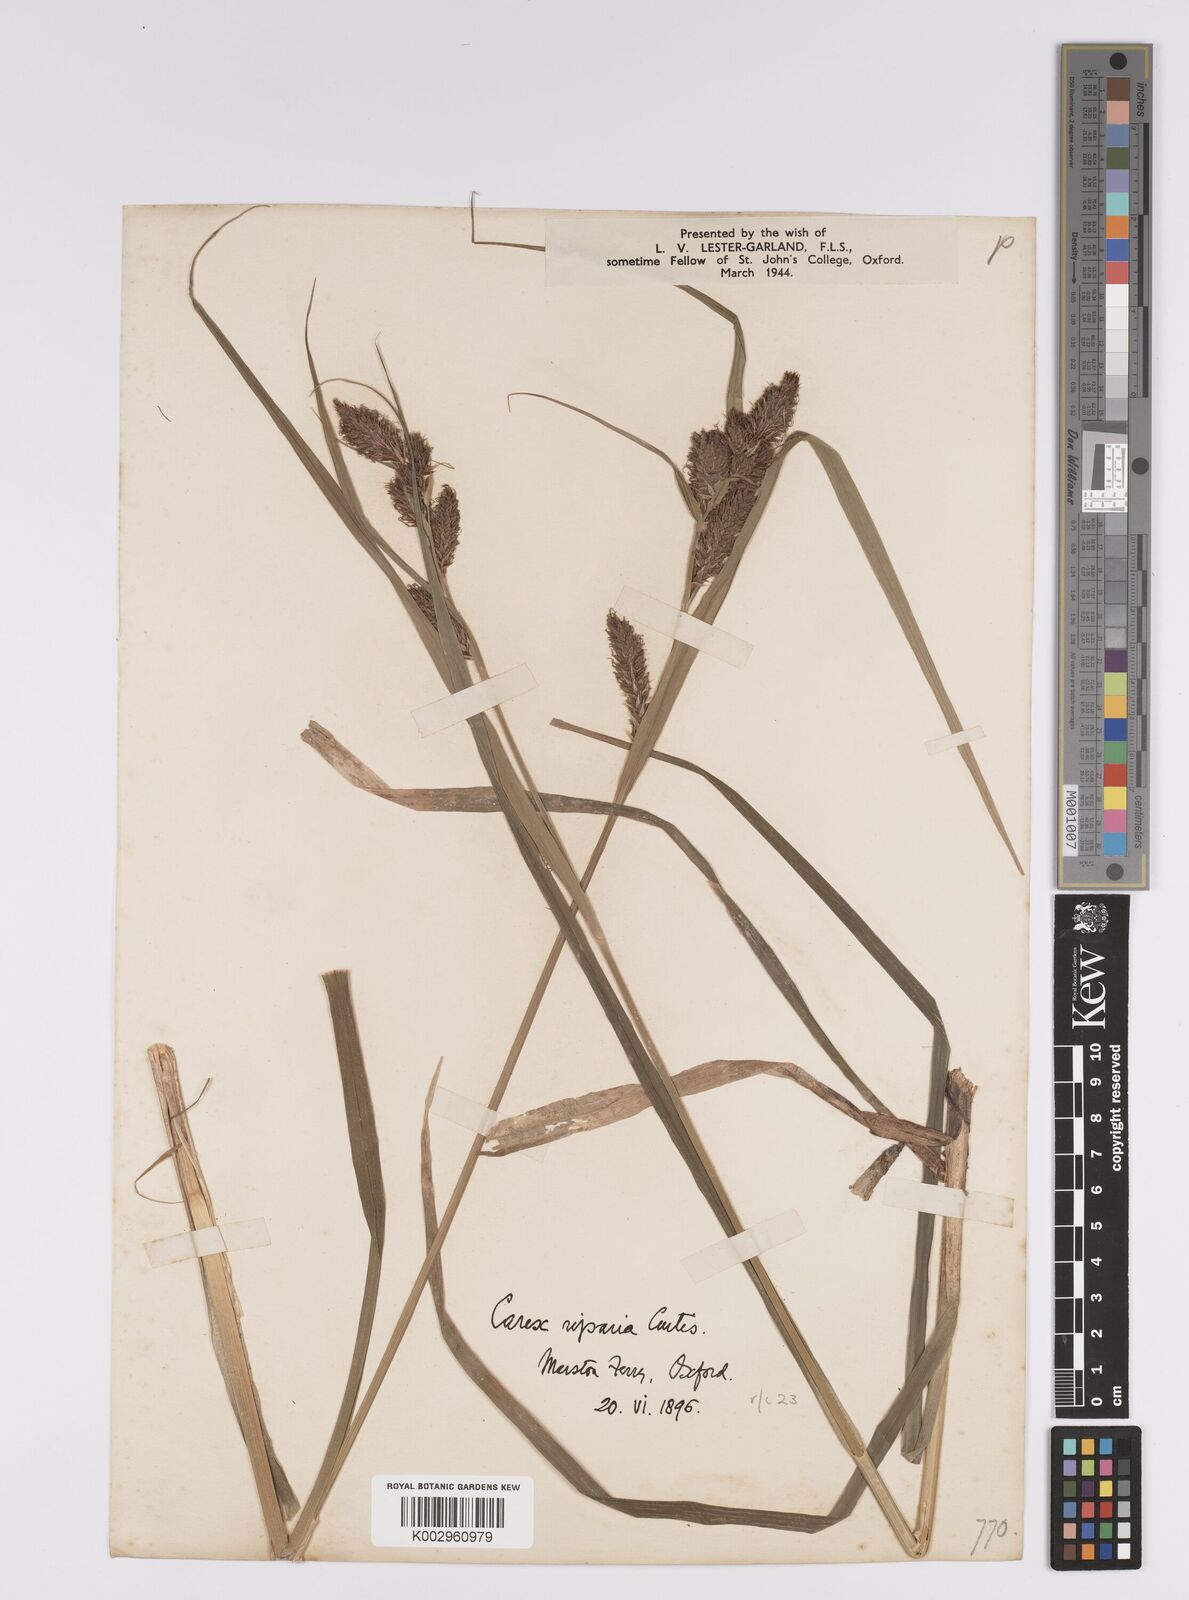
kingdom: Plantae
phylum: Tracheophyta
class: Liliopsida
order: Poales
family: Cyperaceae
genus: Carex
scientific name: Carex riparia
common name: Greater pond-sedge
